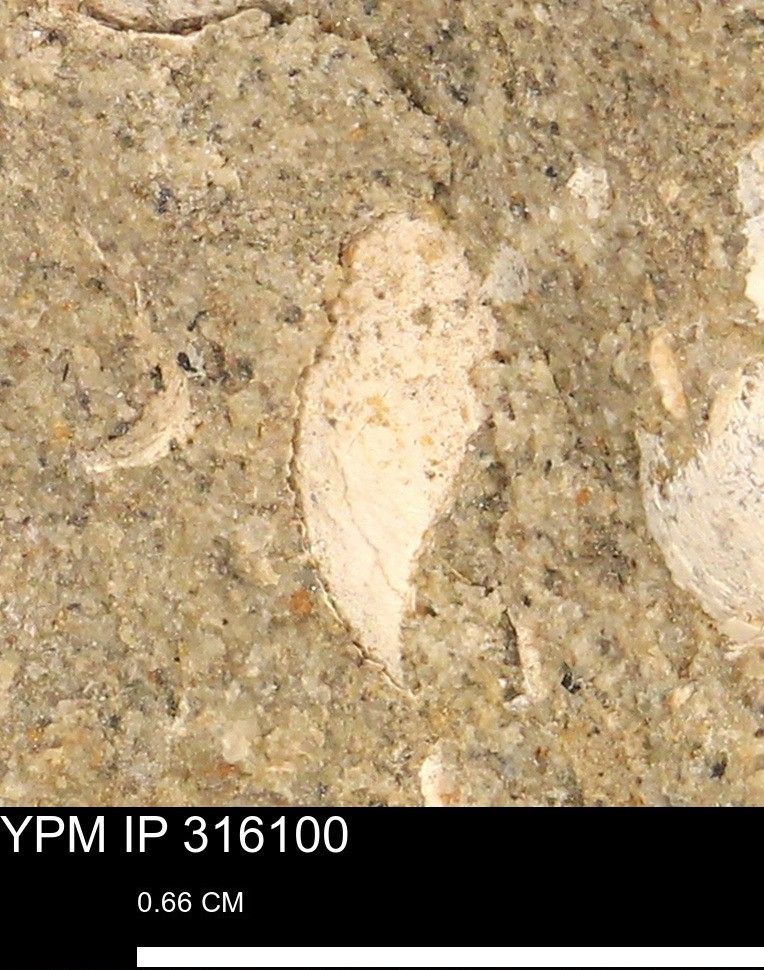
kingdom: Animalia
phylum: Mollusca
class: Gastropoda
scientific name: Gastropoda
